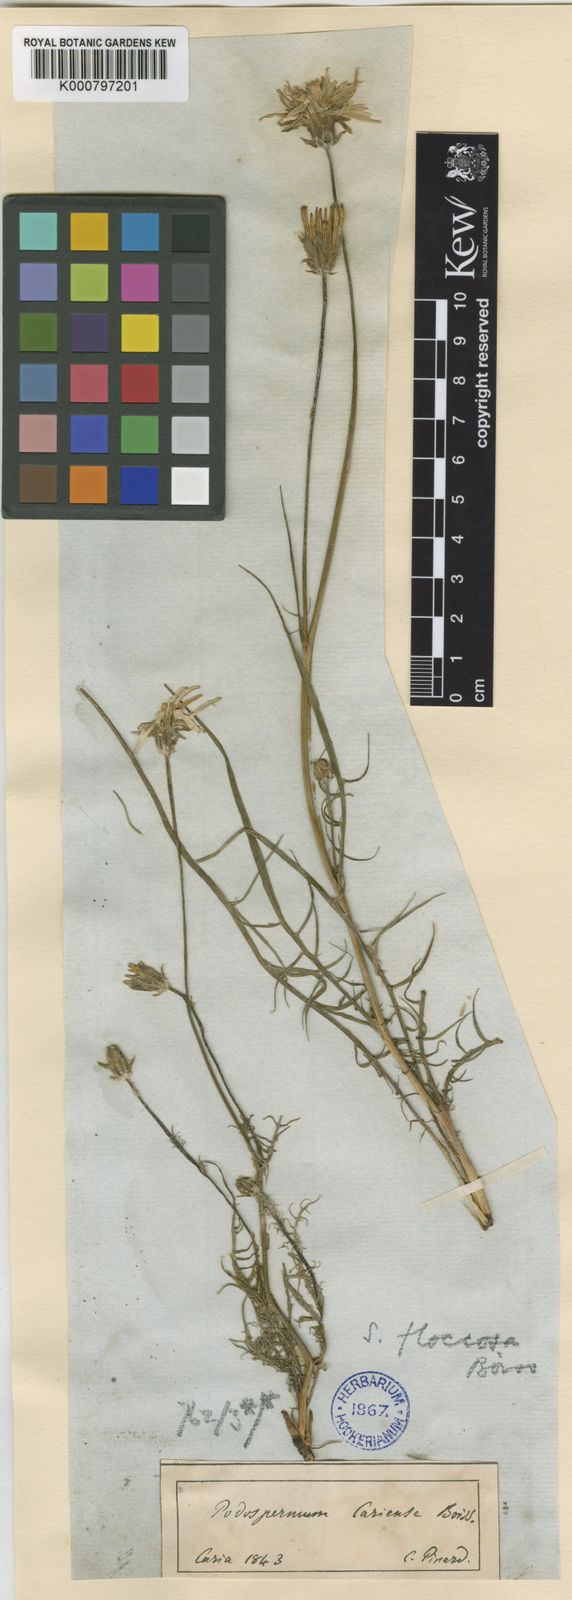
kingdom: Plantae
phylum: Tracheophyta
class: Magnoliopsida
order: Asterales
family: Asteraceae
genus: Scorzonera
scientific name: Scorzonera cana
